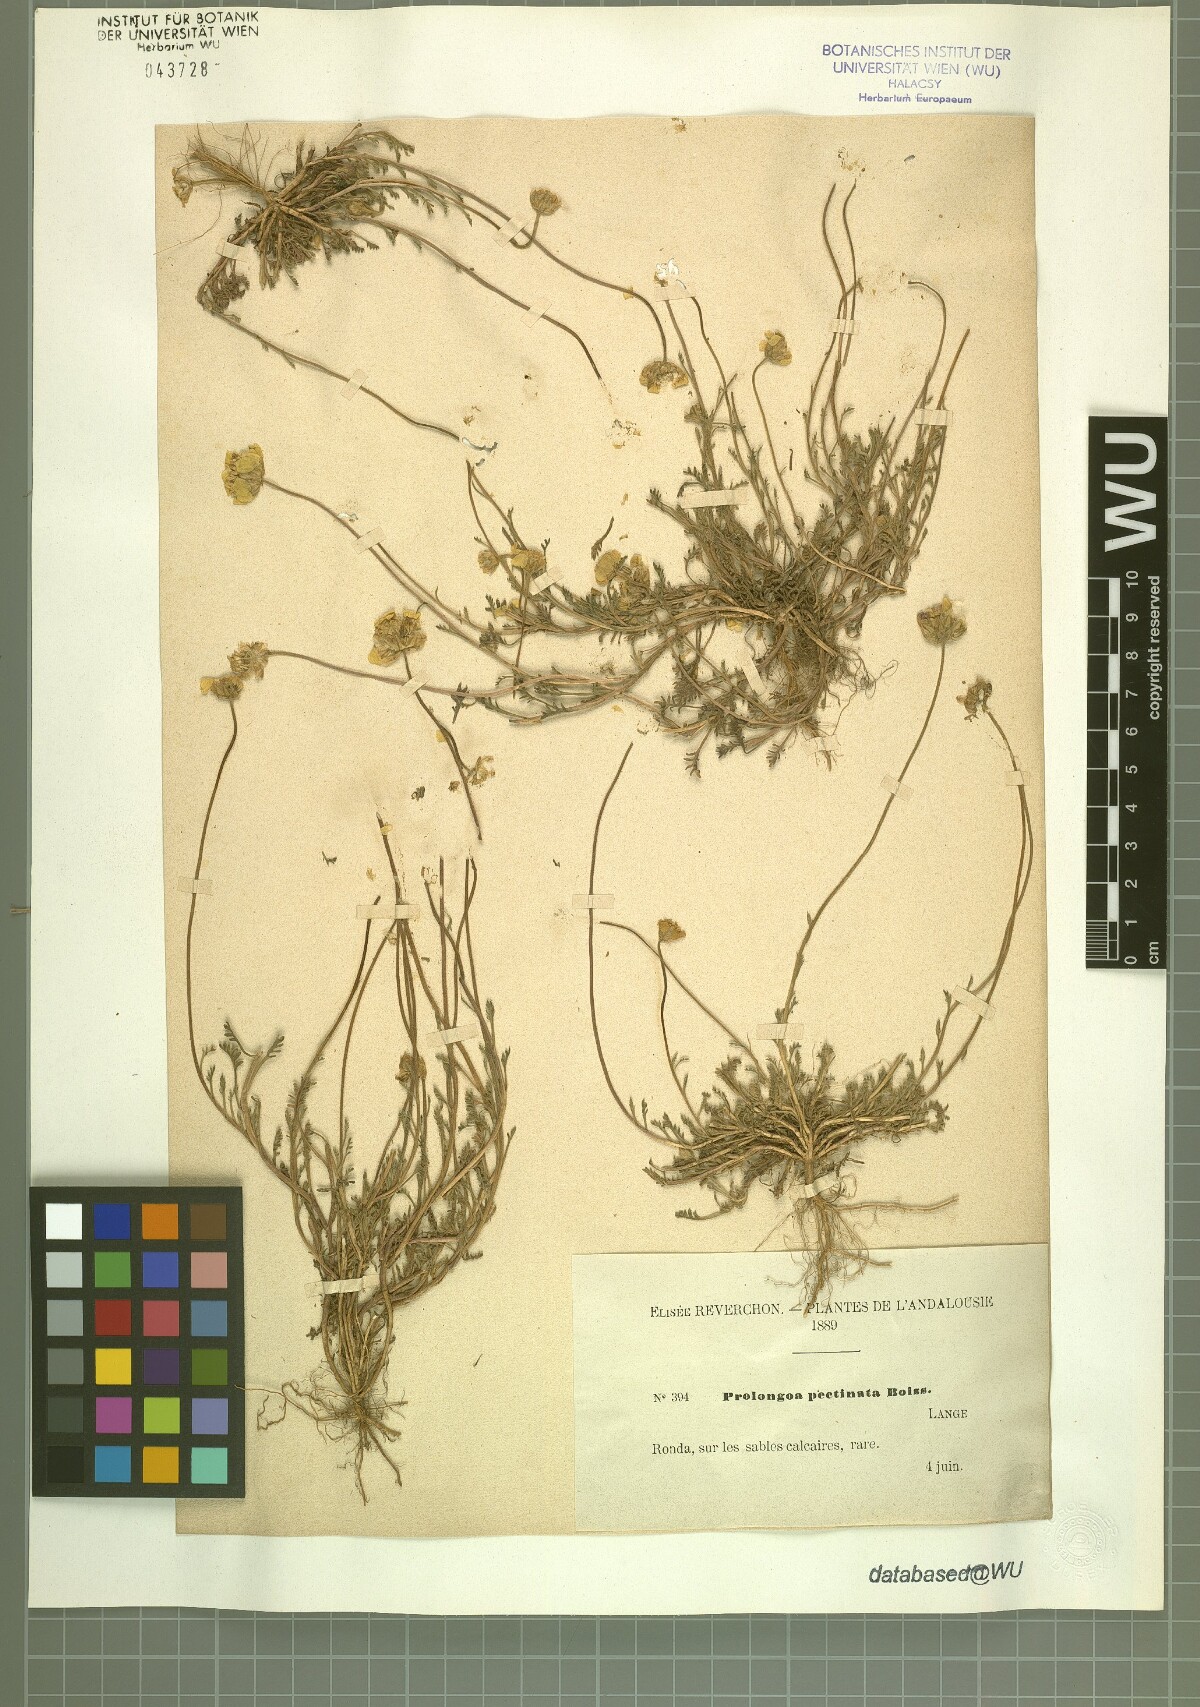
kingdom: Plantae
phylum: Tracheophyta
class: Magnoliopsida
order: Asterales
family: Asteraceae
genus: Leucanthemopsis
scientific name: Leucanthemopsis pectinata
